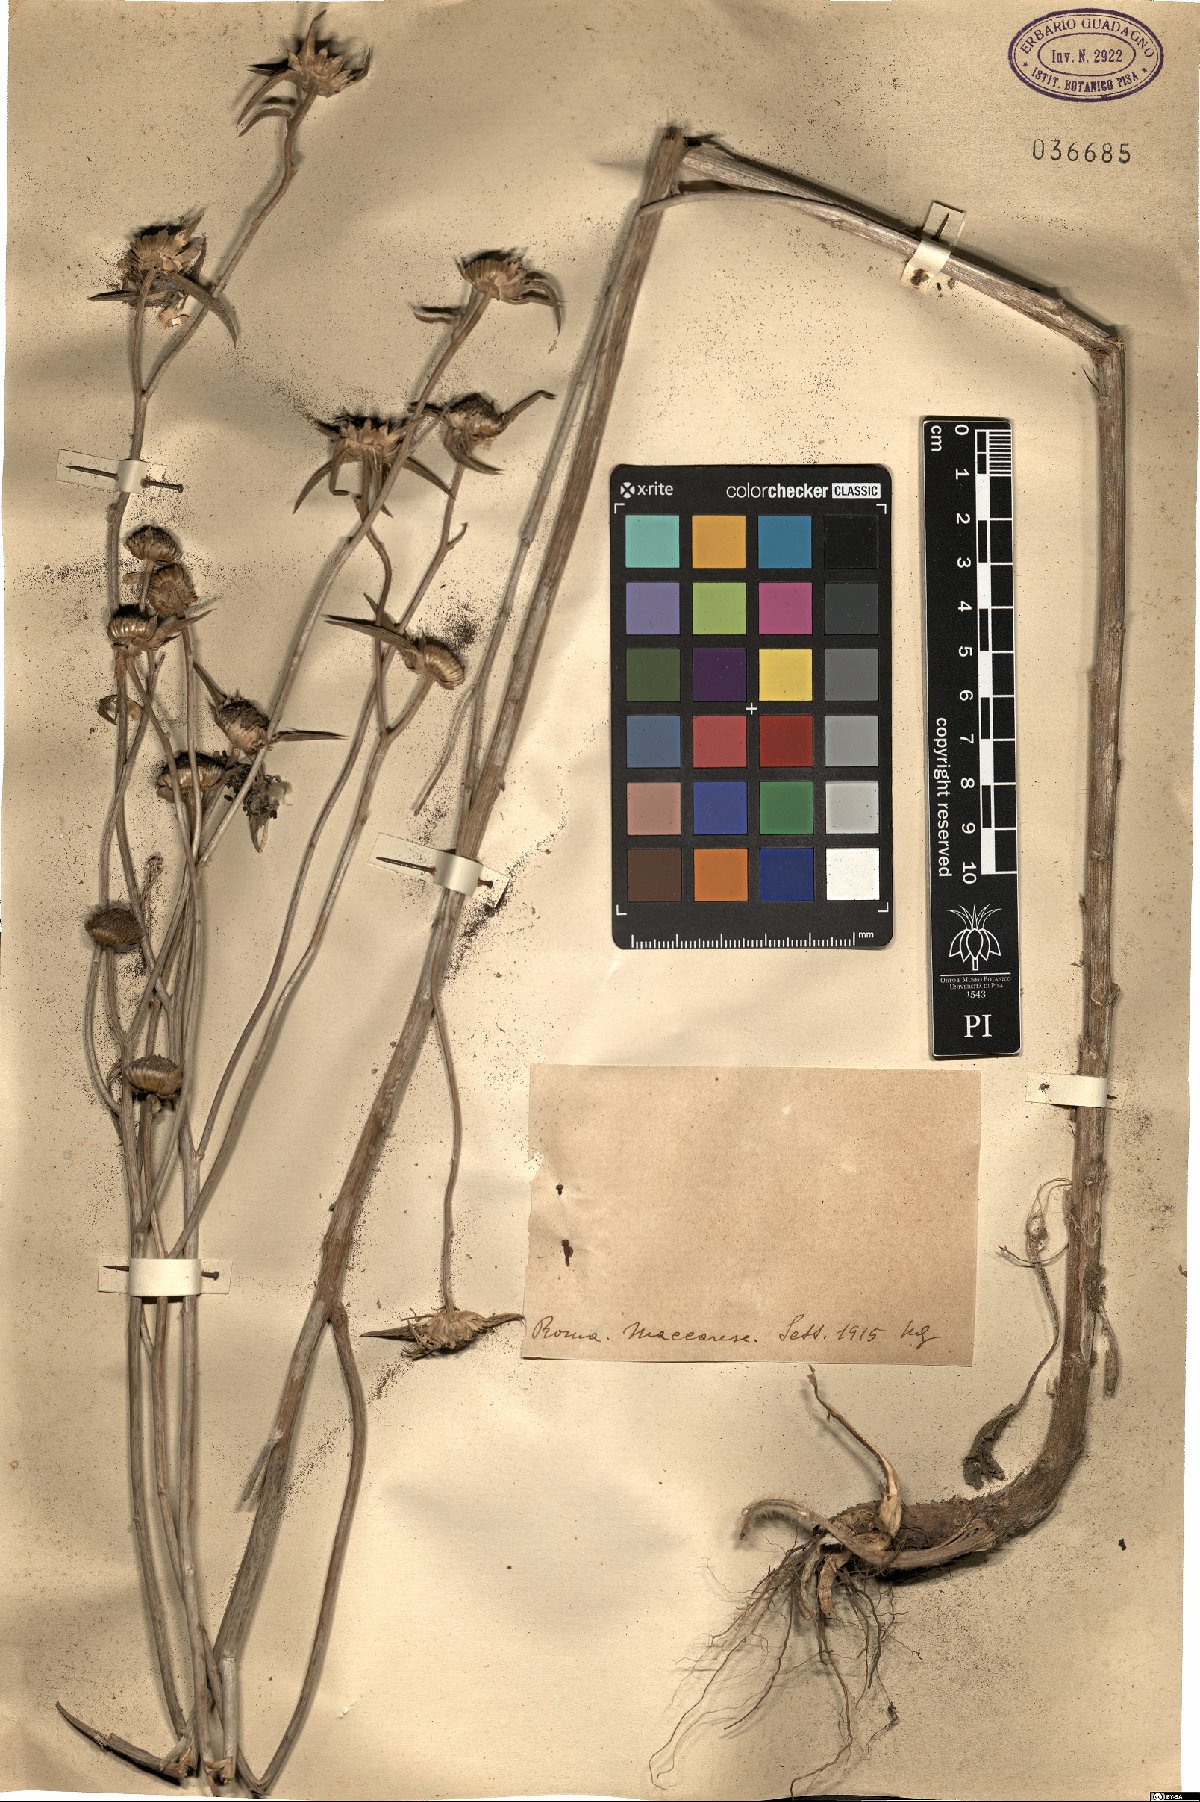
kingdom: Plantae
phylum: Tracheophyta
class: Magnoliopsida
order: Asterales
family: Asteraceae
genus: Asteriscus
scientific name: Asteriscus
